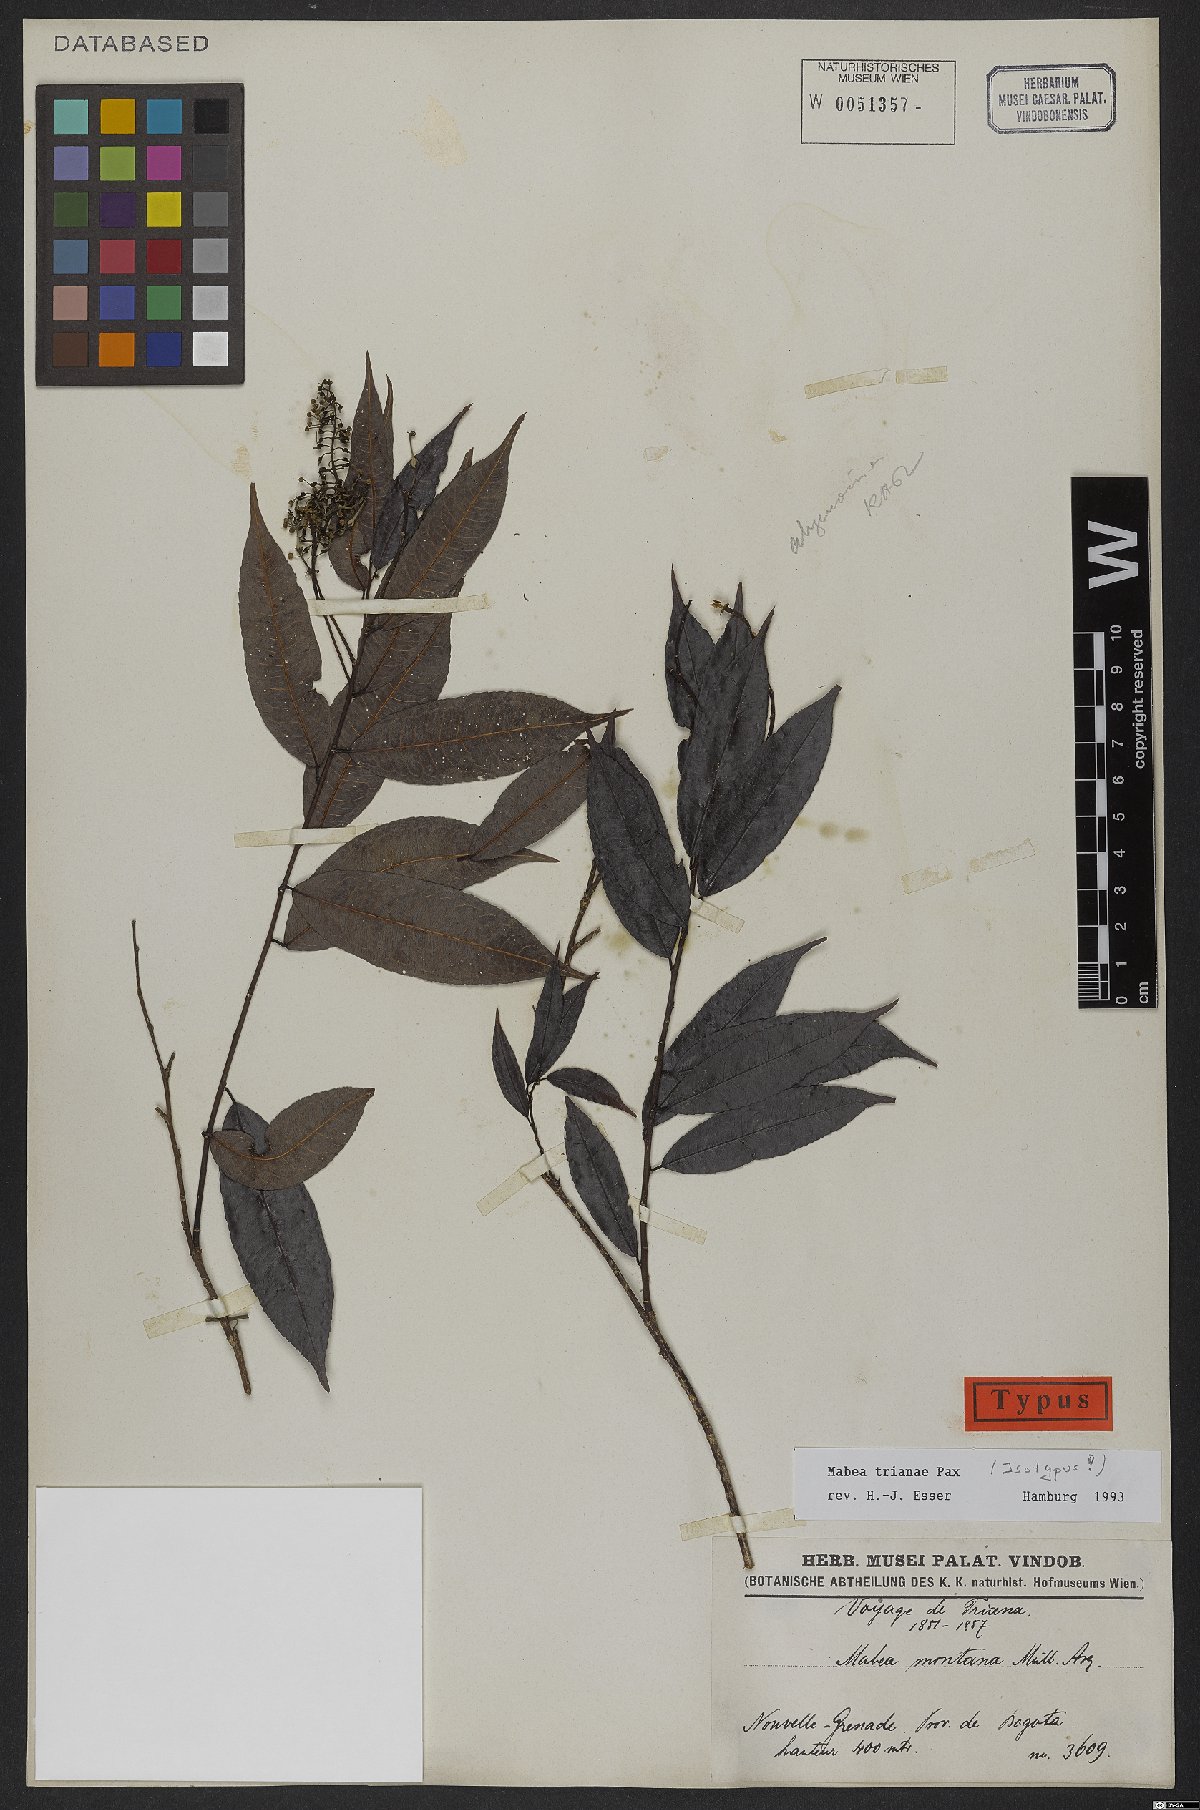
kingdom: Plantae
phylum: Tracheophyta
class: Magnoliopsida
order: Malpighiales
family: Euphorbiaceae
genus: Mabea
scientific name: Mabea trianae
